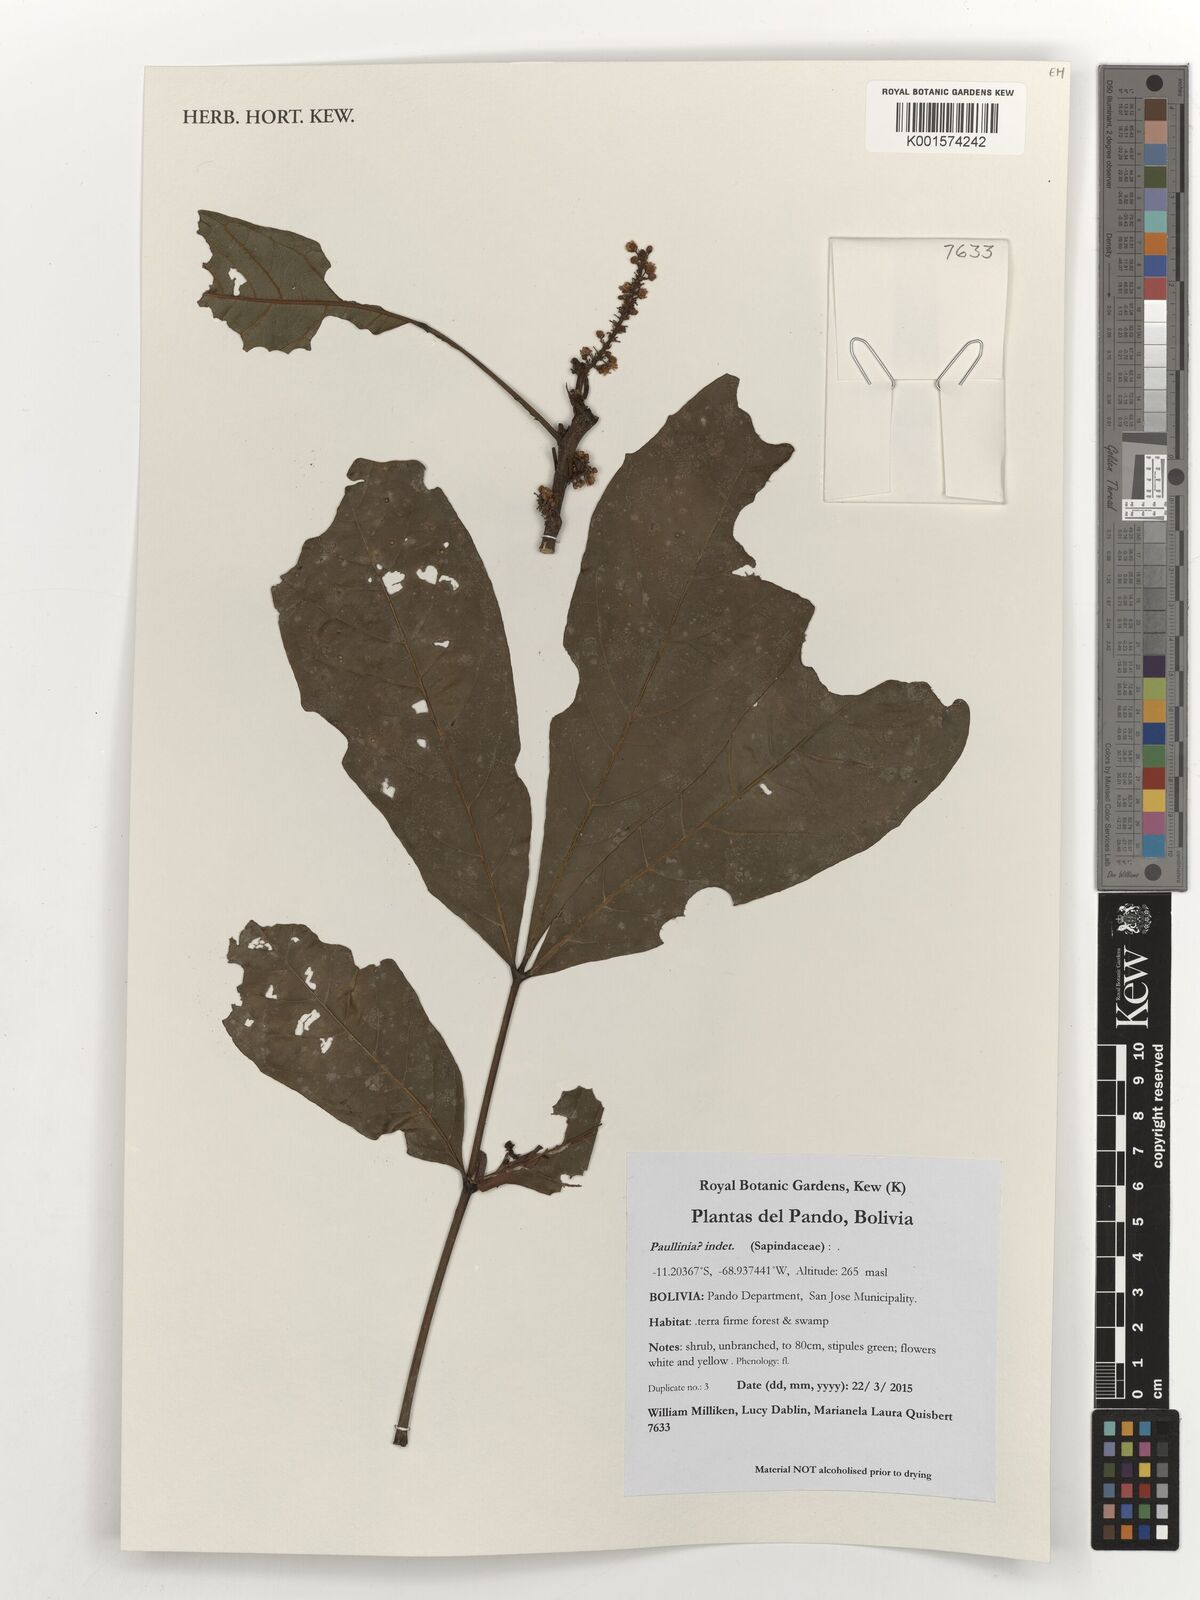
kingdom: Plantae
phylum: Tracheophyta
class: Magnoliopsida
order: Sapindales
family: Sapindaceae
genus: Paullinia
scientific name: Paullinia
